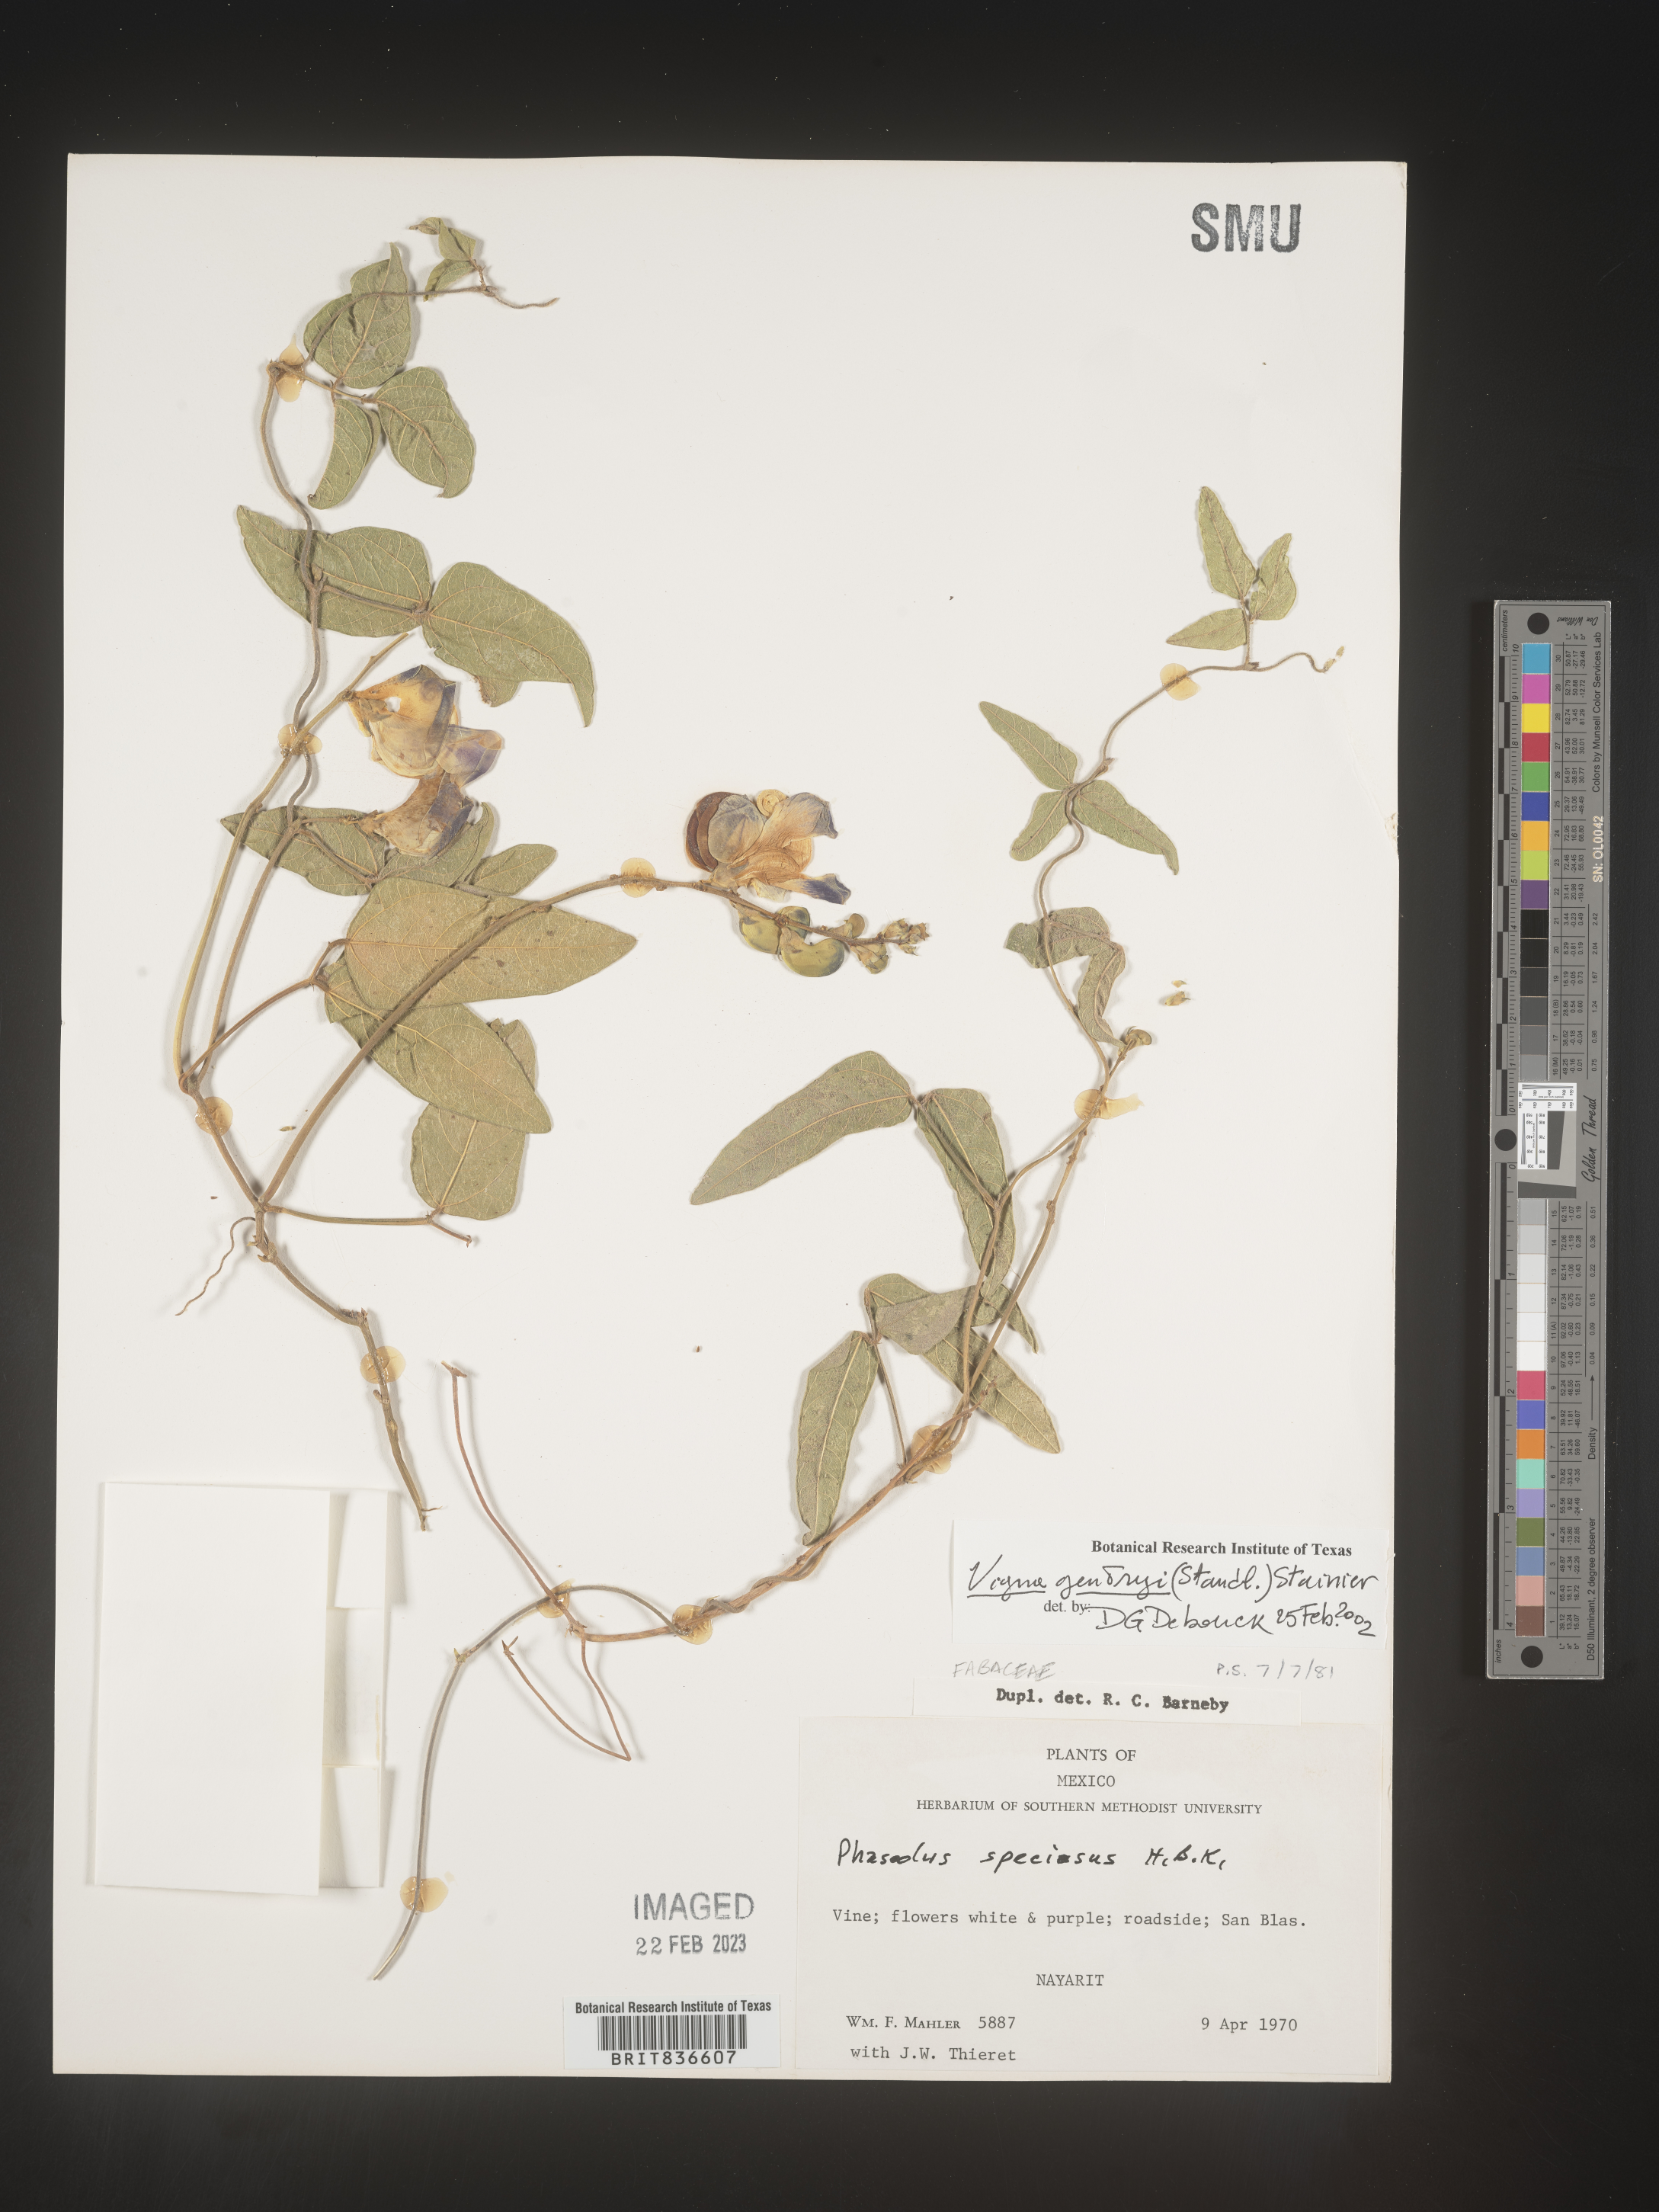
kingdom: Plantae
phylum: Tracheophyta
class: Magnoliopsida
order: Fabales
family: Fabaceae
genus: Vigna
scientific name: Vigna
